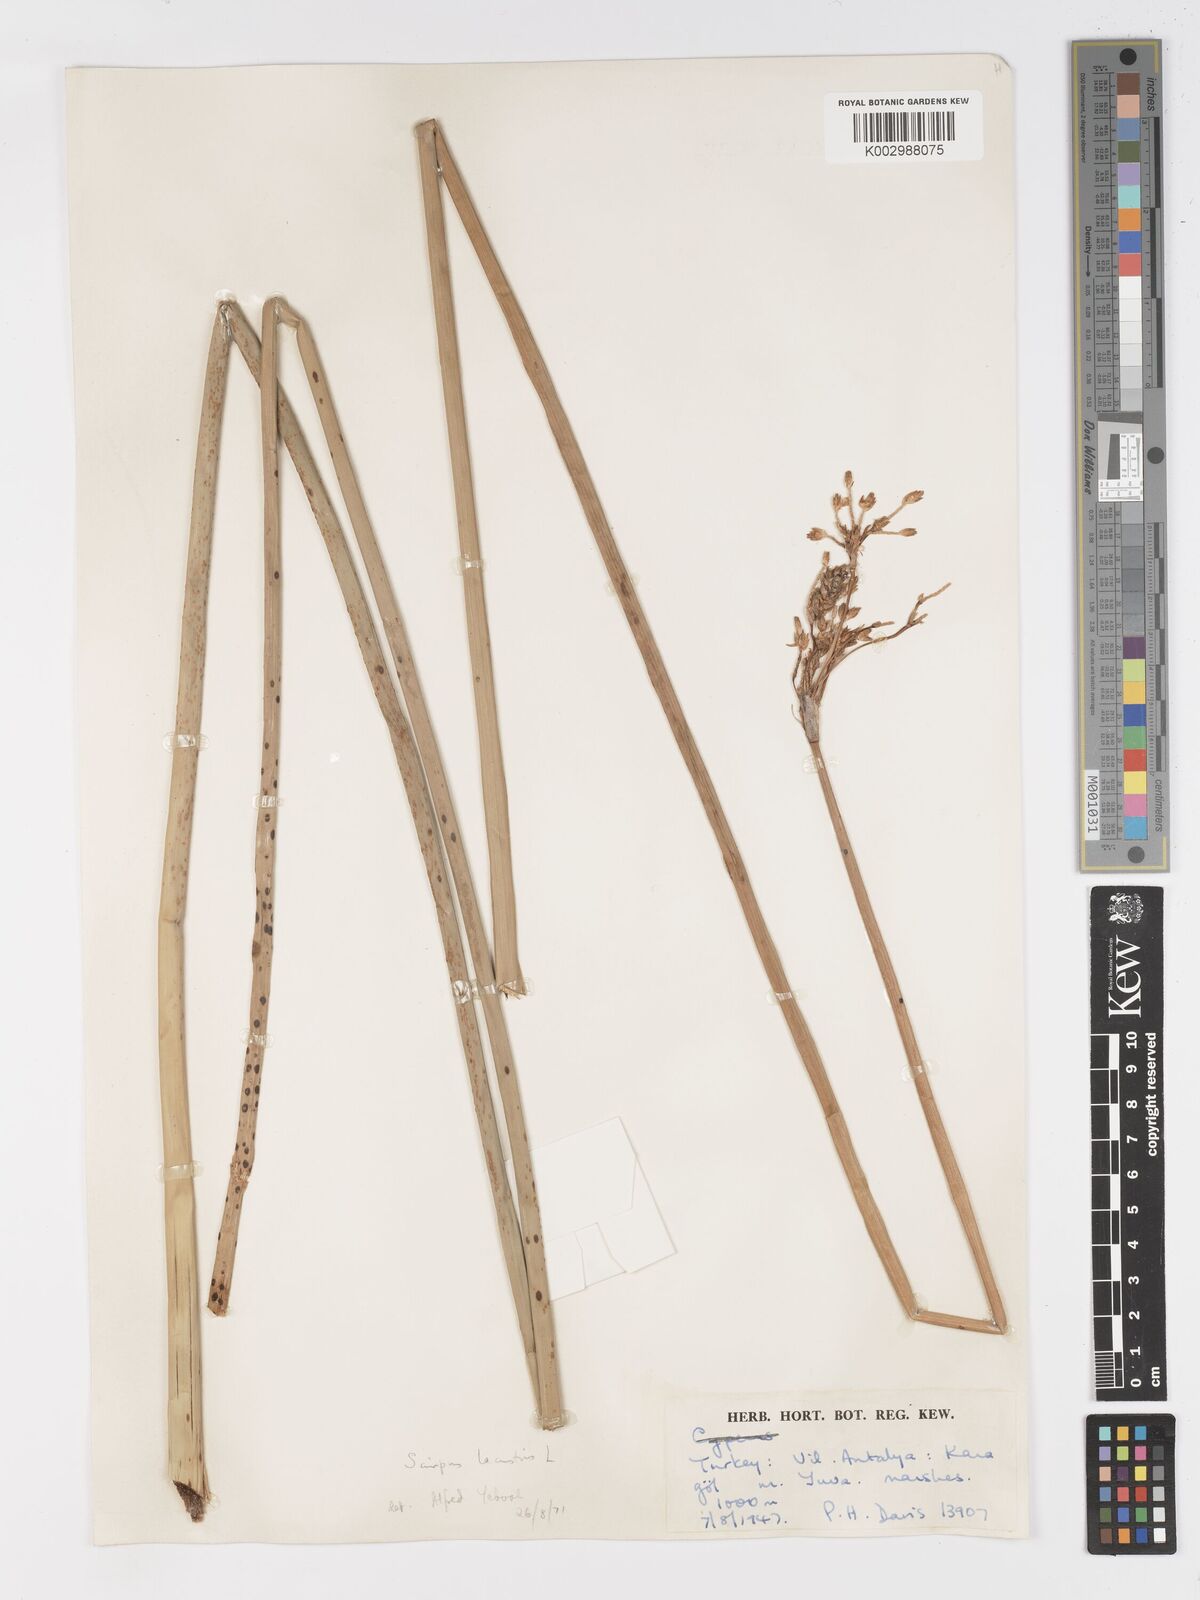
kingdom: Plantae
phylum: Tracheophyta
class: Liliopsida
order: Poales
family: Cyperaceae
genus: Schoenoplectus
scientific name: Schoenoplectus
